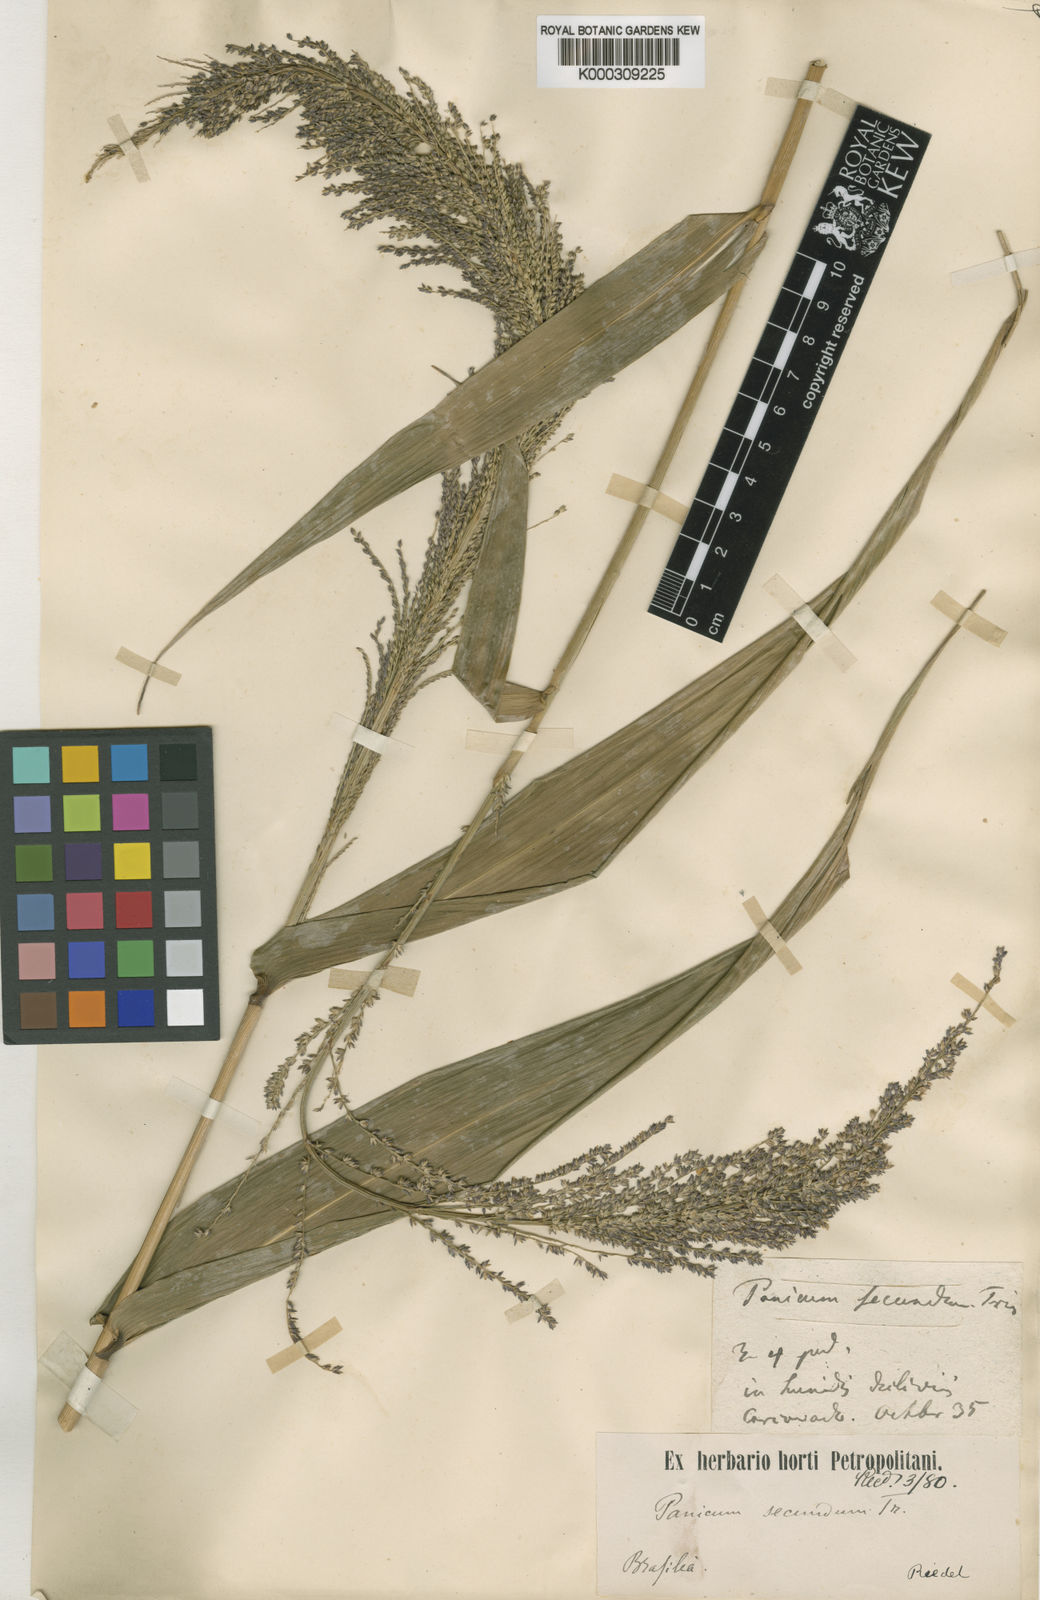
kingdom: Plantae
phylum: Tracheophyta
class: Liliopsida
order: Poales
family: Poaceae
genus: Ocellochloa
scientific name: Ocellochloa rudis
